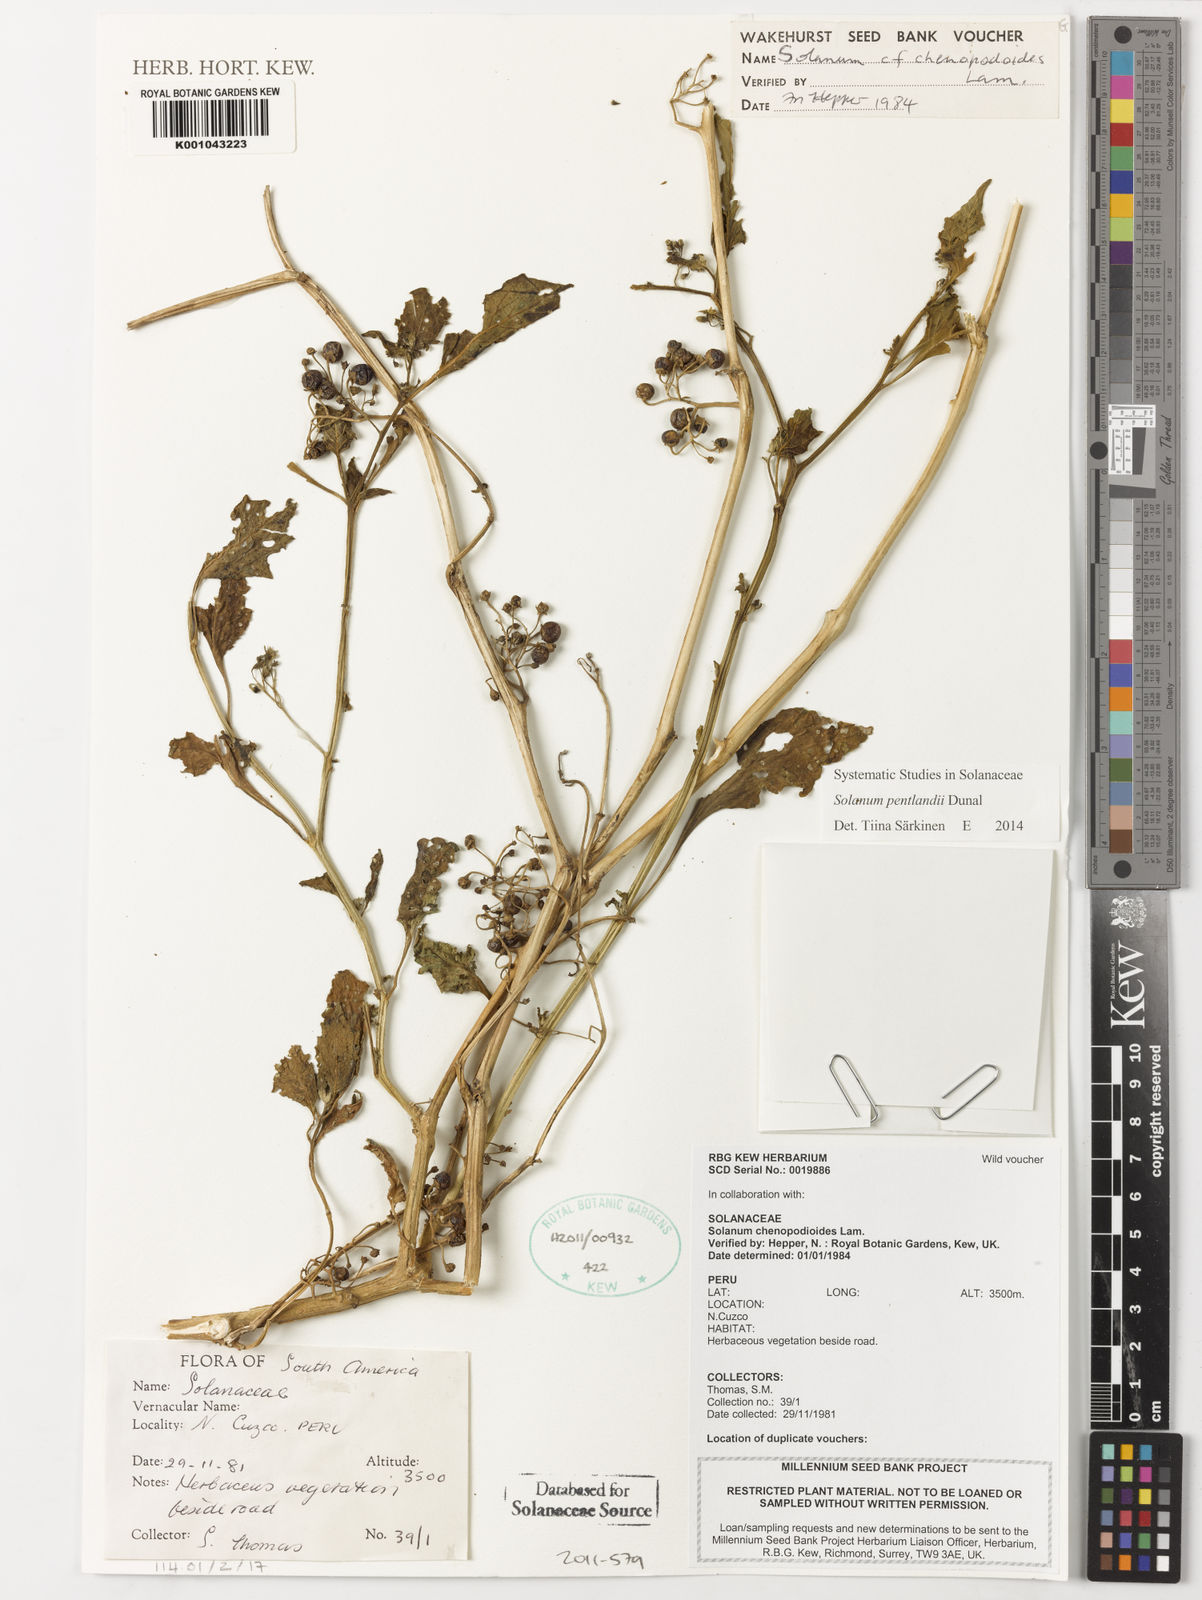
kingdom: Plantae
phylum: Tracheophyta
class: Magnoliopsida
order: Solanales
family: Solanaceae
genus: Solanum
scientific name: Solanum pentlandii
